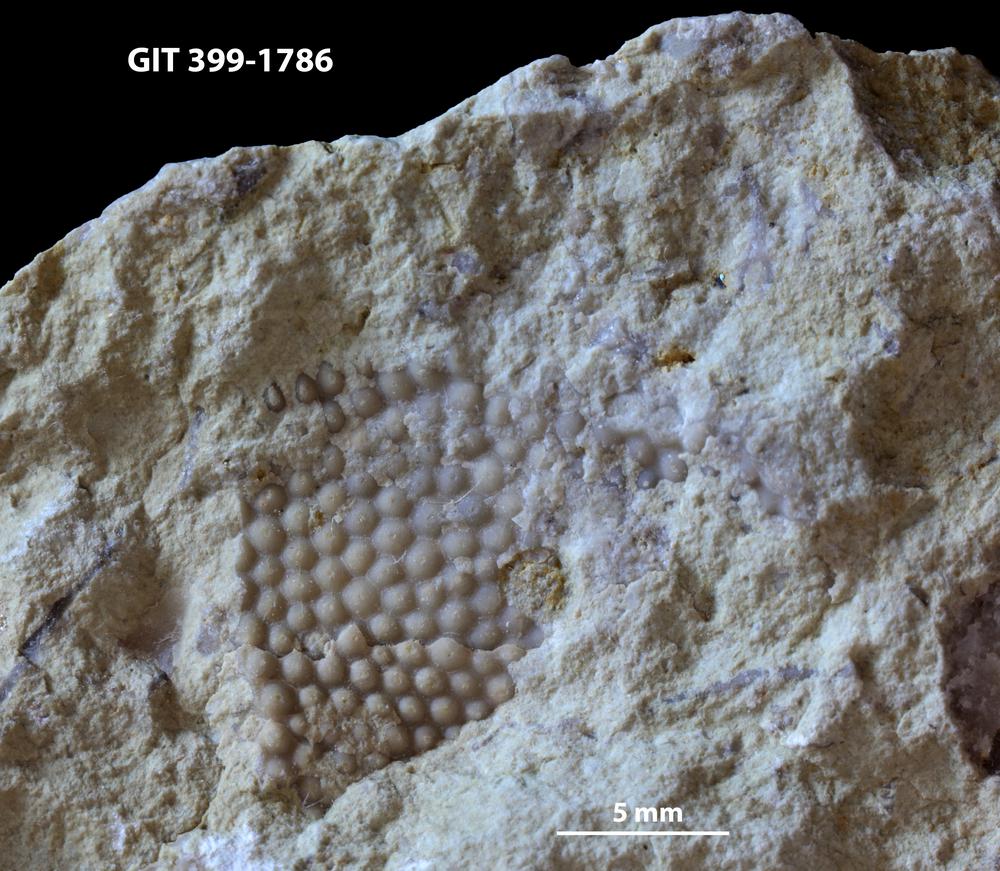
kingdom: Plantae
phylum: Chlorophyta
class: Ulvophyceae
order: Cyclocrinales
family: Cyclocrinaceae
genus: Mastopora
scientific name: Mastopora concava
